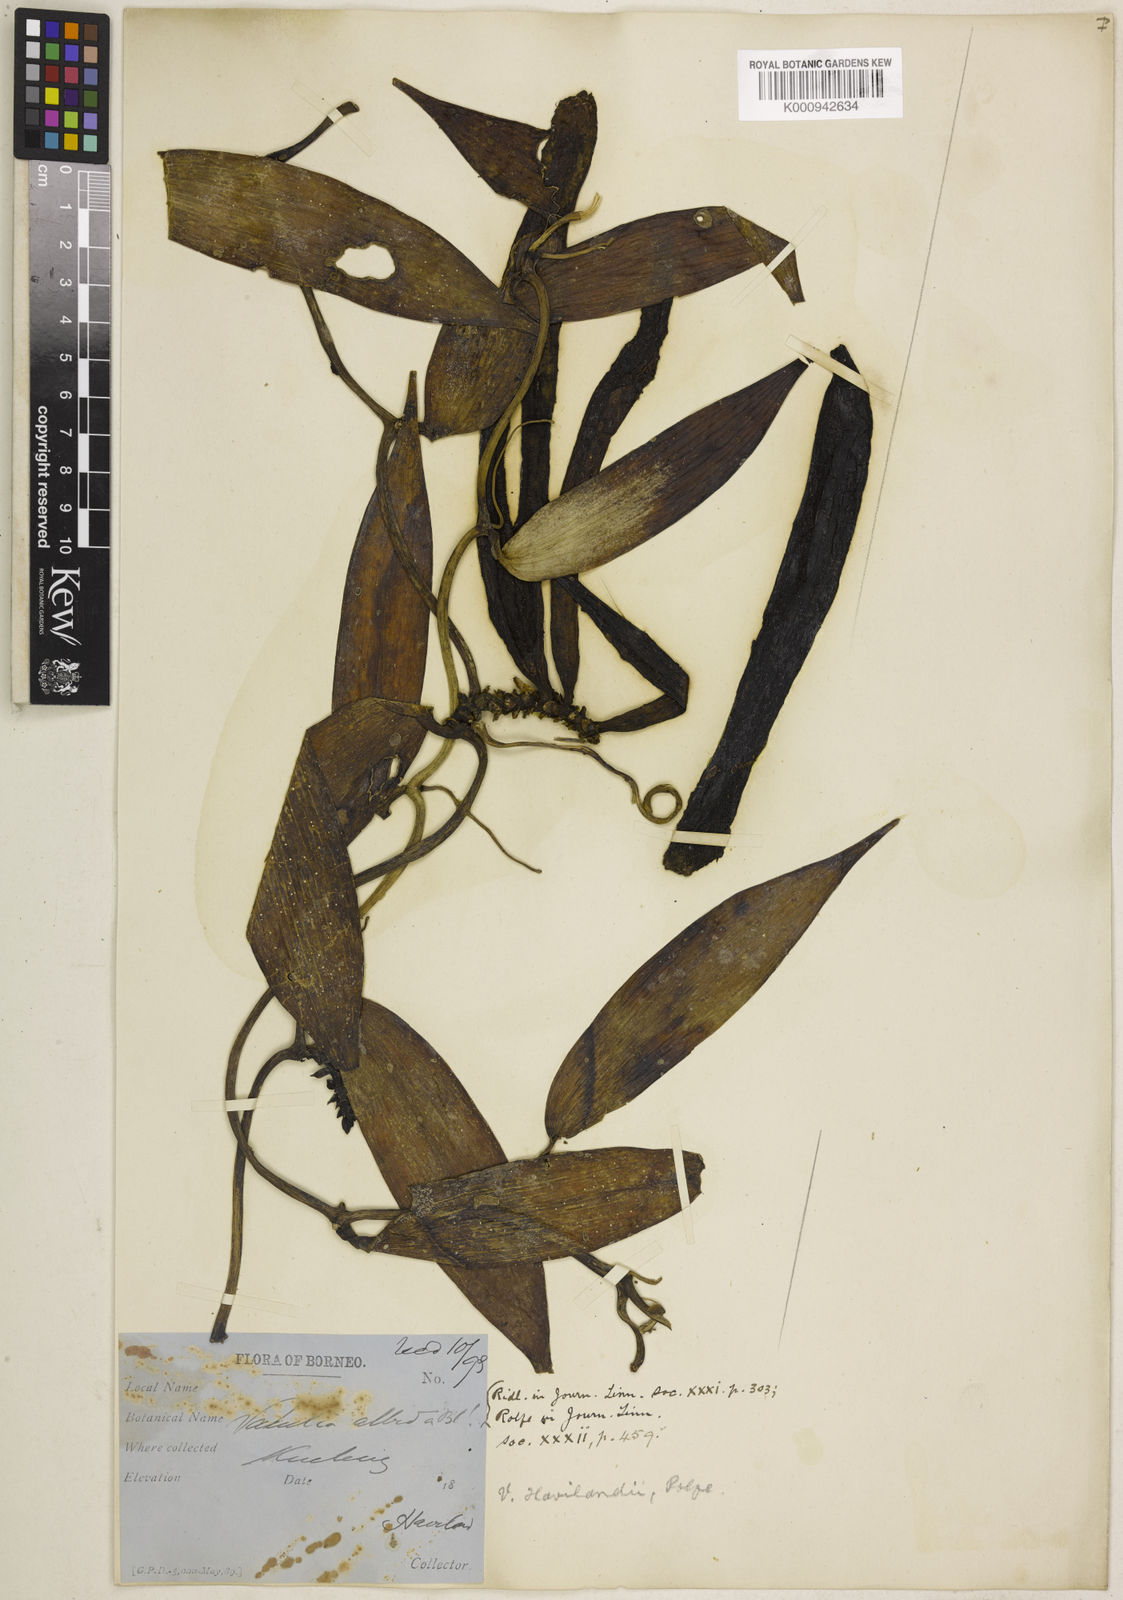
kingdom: Plantae
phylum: Tracheophyta
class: Liliopsida
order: Asparagales
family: Orchidaceae
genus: Vanilla
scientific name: Vanilla havilandii
